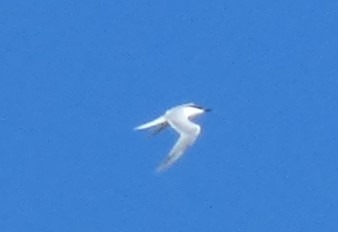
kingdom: Animalia
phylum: Chordata
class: Aves
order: Charadriiformes
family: Laridae
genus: Thalasseus
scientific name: Thalasseus sandvicensis
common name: Splitterne
